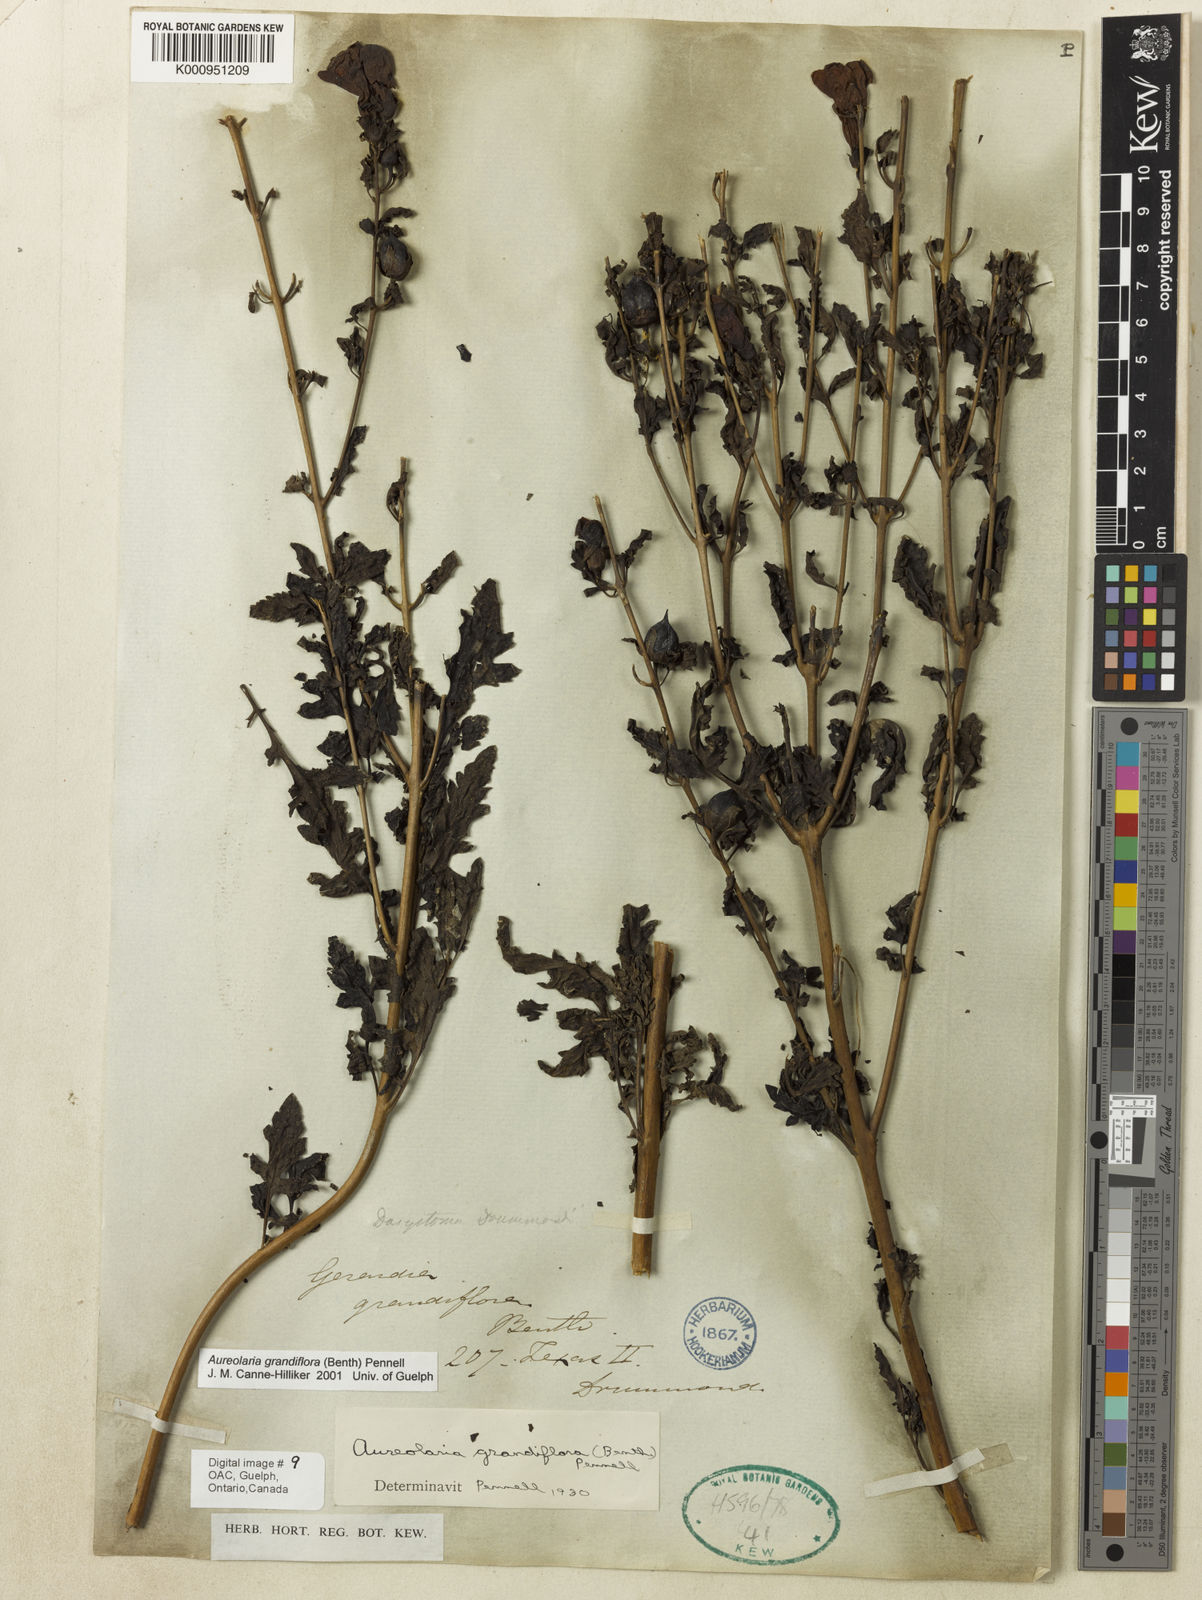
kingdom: Plantae
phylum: Tracheophyta
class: Magnoliopsida
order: Lamiales
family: Orobanchaceae
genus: Aureolaria
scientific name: Aureolaria grandiflora
